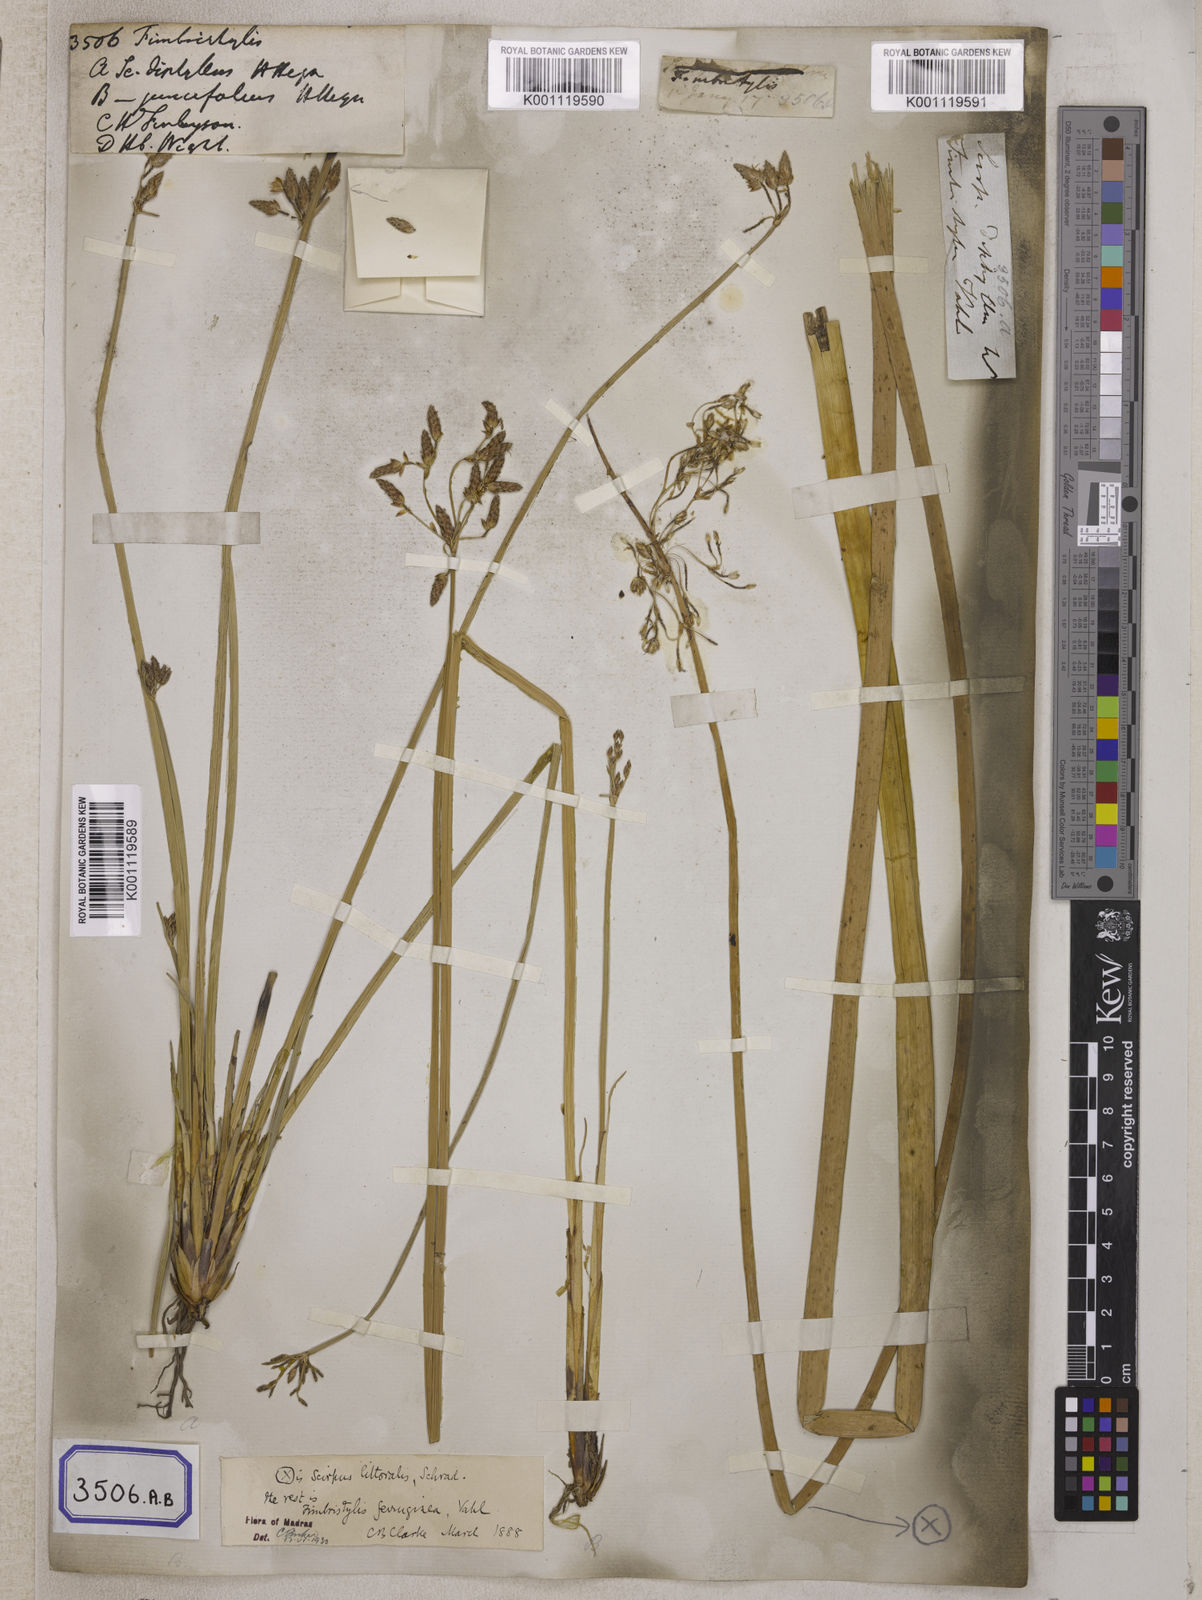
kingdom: Plantae
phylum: Tracheophyta
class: Liliopsida
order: Poales
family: Cyperaceae
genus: Fimbristylis
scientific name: Fimbristylis
